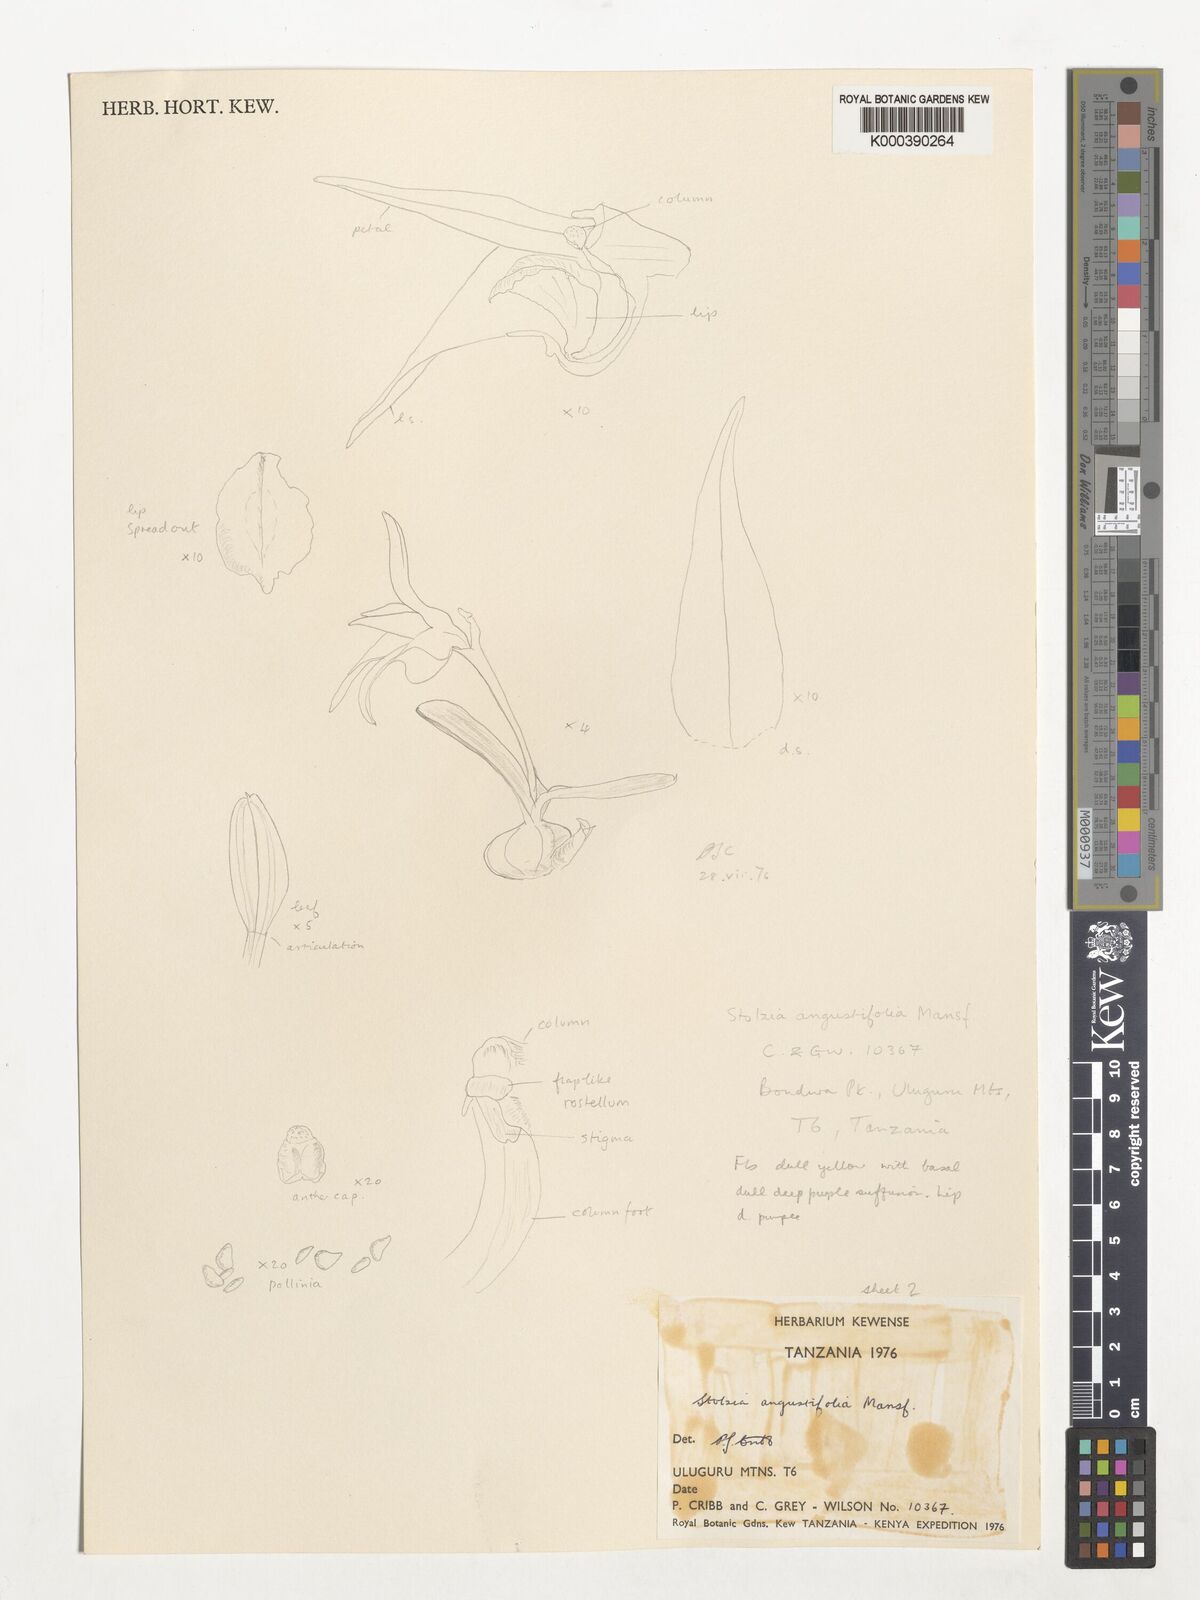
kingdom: Plantae
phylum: Tracheophyta
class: Liliopsida
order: Asparagales
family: Orchidaceae
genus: Porpax
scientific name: Porpax angustifolia
